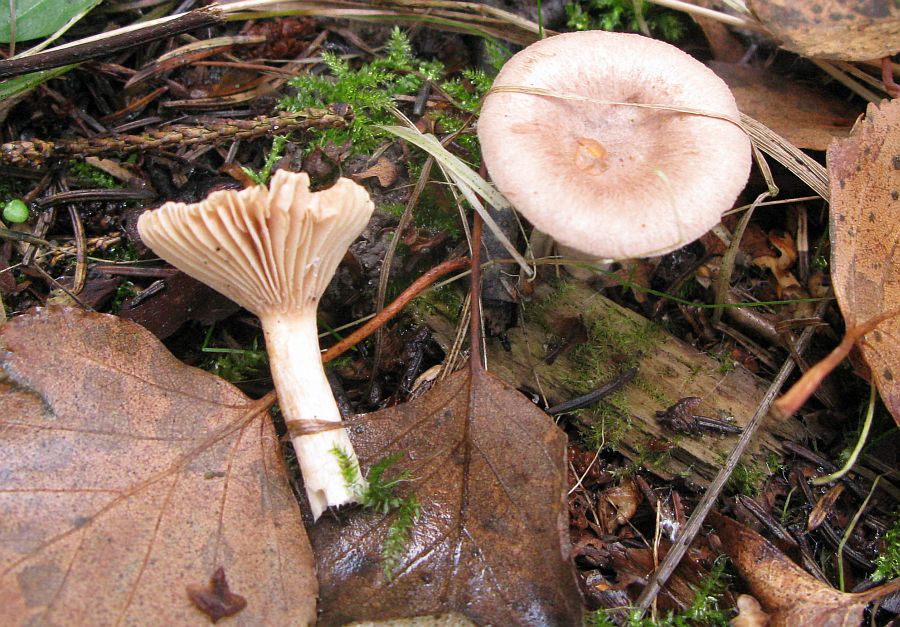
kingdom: Fungi
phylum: Basidiomycota
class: Agaricomycetes
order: Russulales
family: Russulaceae
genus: Lactarius
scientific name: Lactarius glyciosmus
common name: kokos-mælkehat
